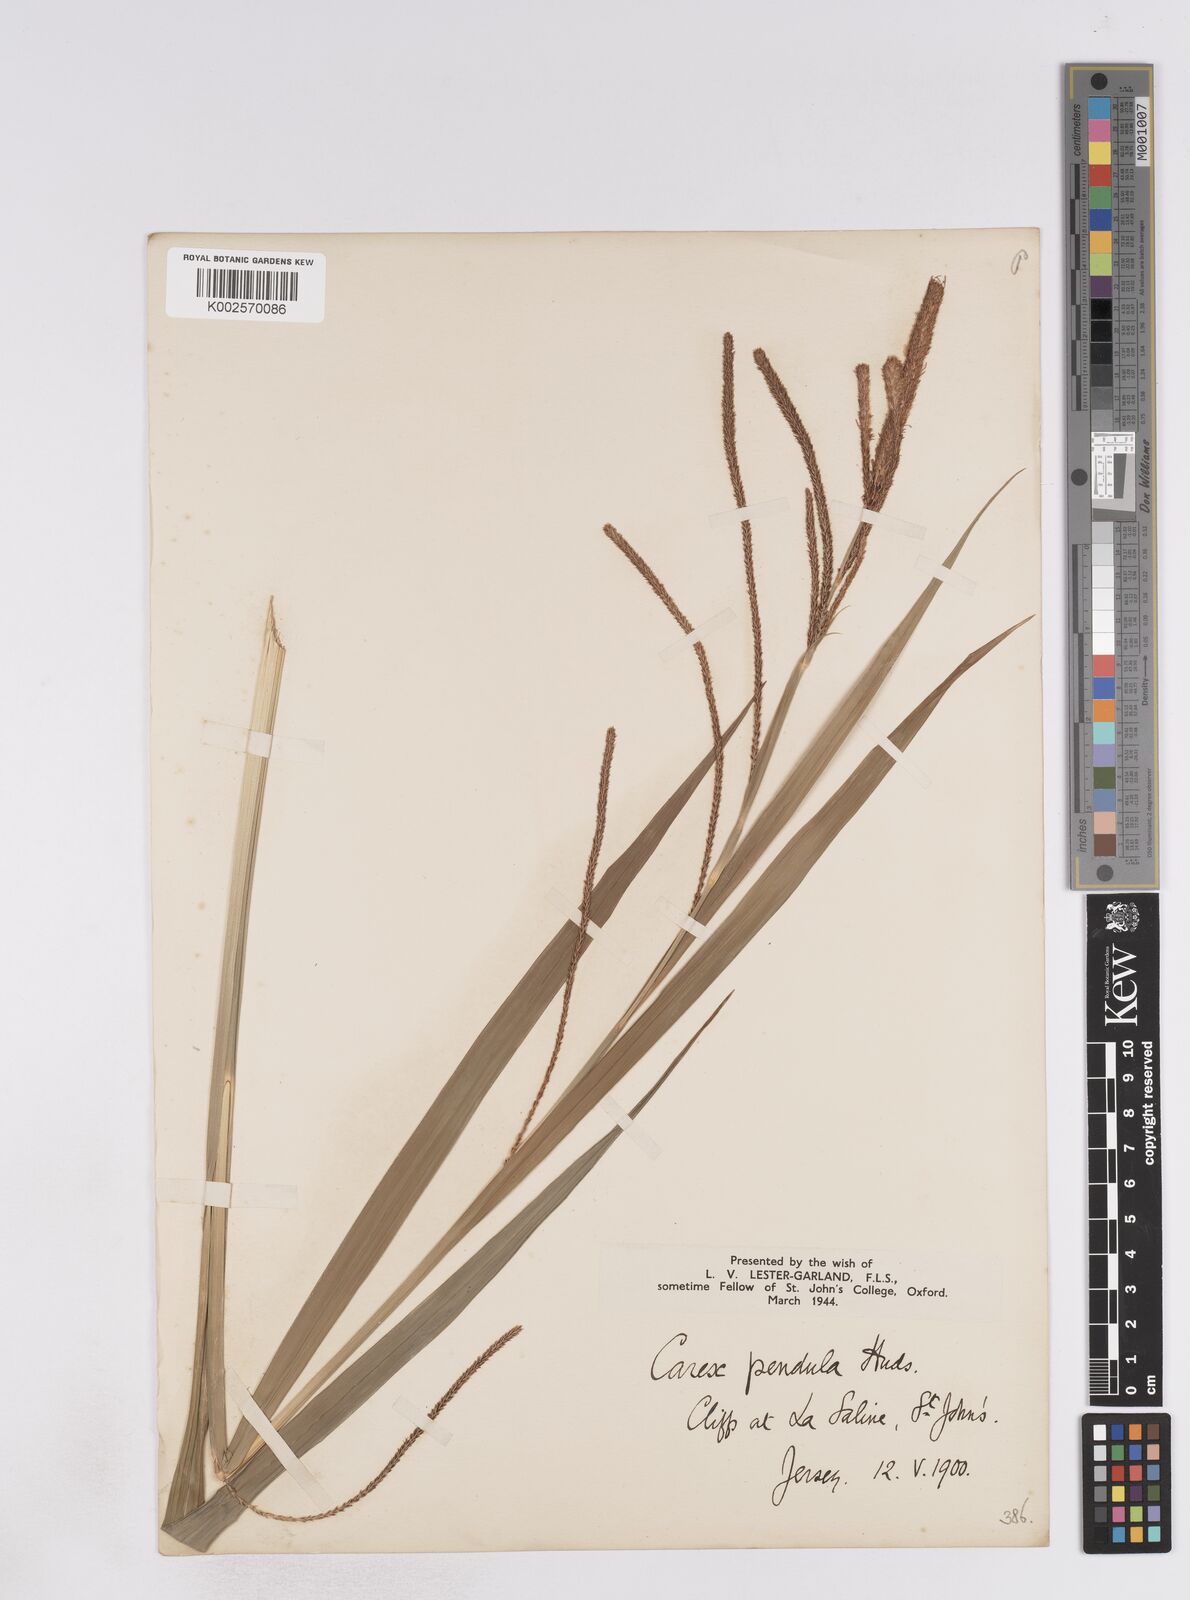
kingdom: Plantae
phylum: Tracheophyta
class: Liliopsida
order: Poales
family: Cyperaceae
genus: Carex
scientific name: Carex pendula
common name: Pendulous sedge
